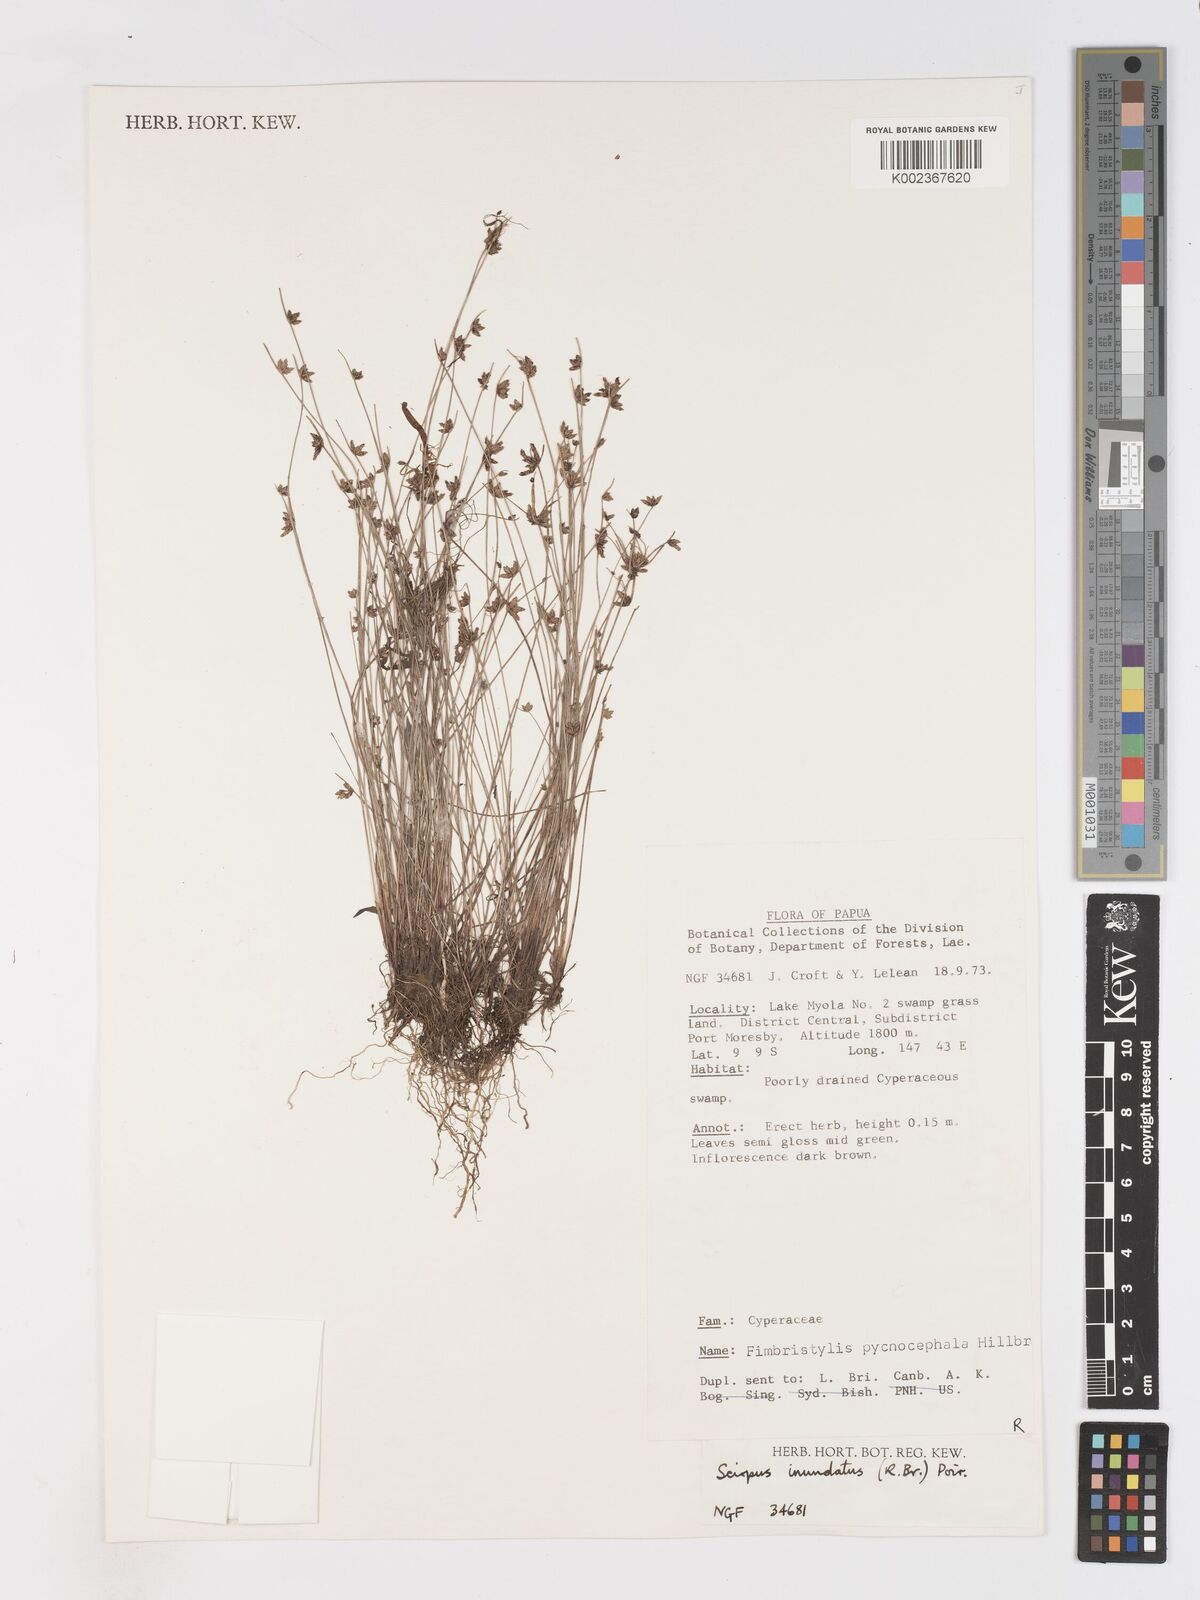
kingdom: Plantae
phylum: Tracheophyta
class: Liliopsida
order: Poales
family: Cyperaceae
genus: Isolepis
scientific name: Isolepis inundata
